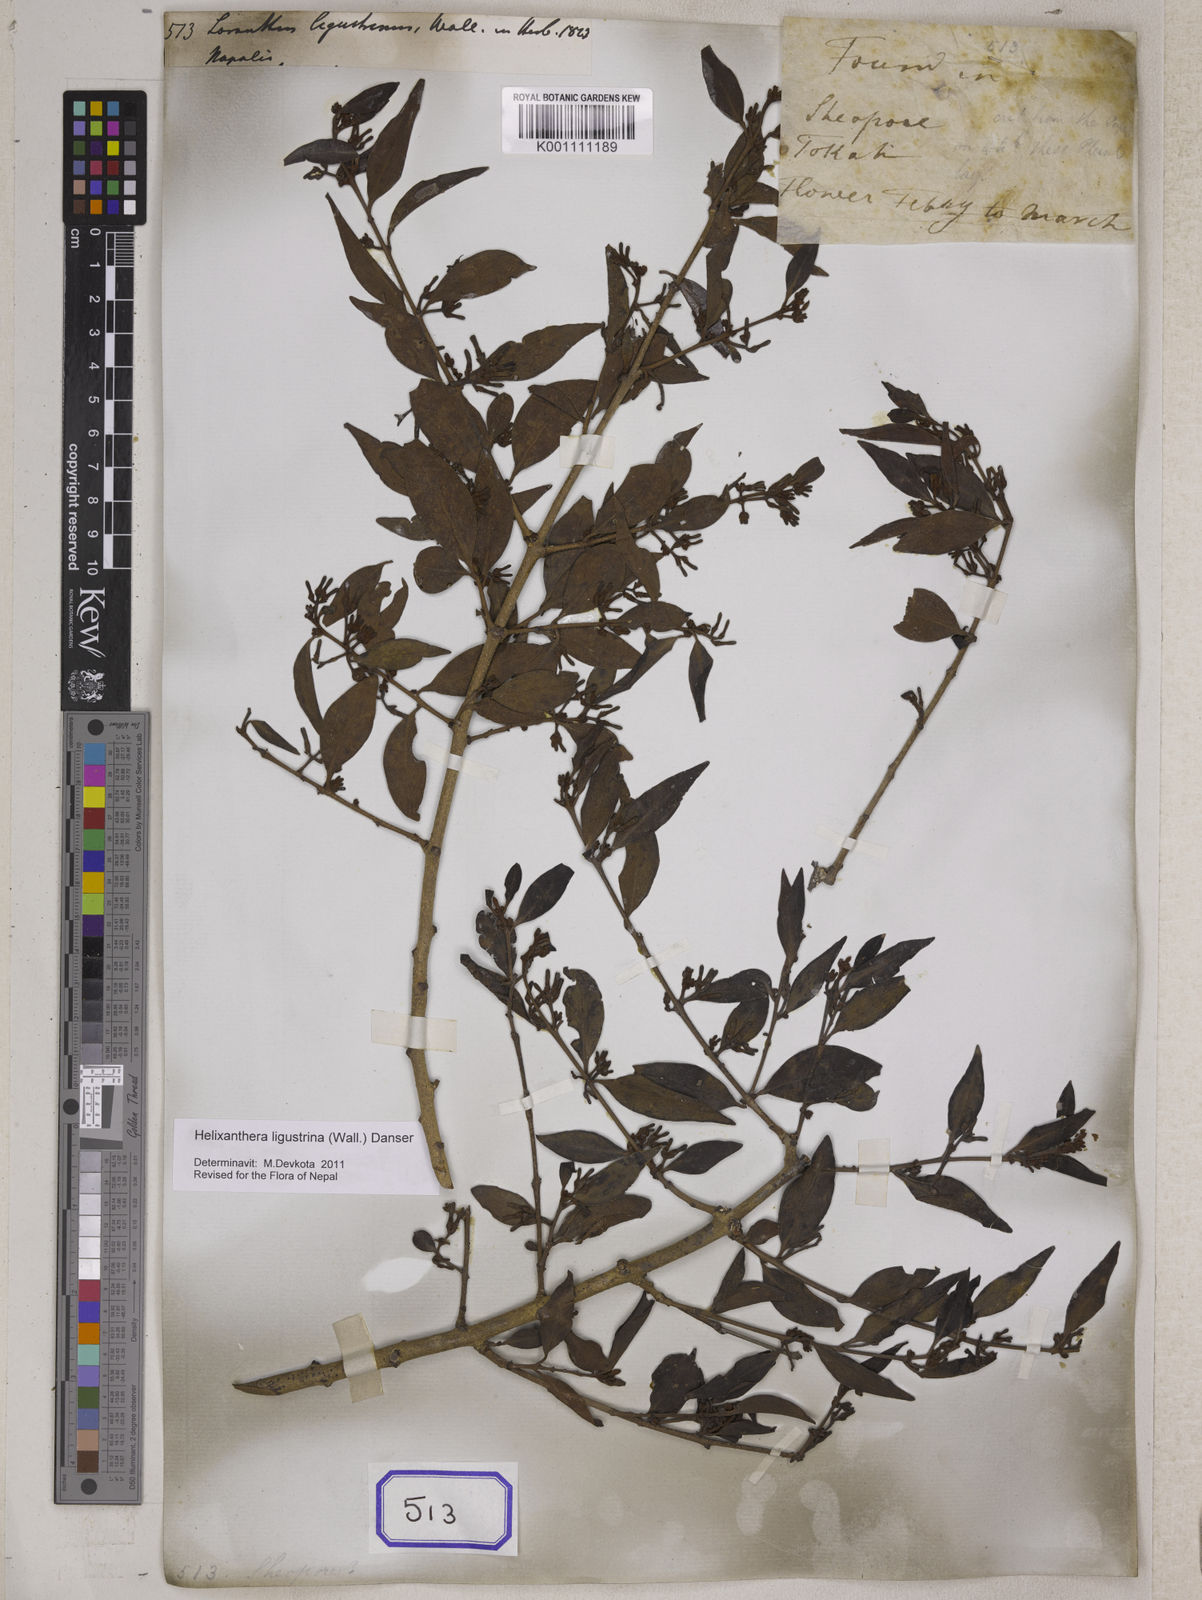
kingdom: Plantae
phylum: Tracheophyta
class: Magnoliopsida
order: Santalales
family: Loranthaceae
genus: Helixanthera
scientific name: Helixanthera ligustrina
